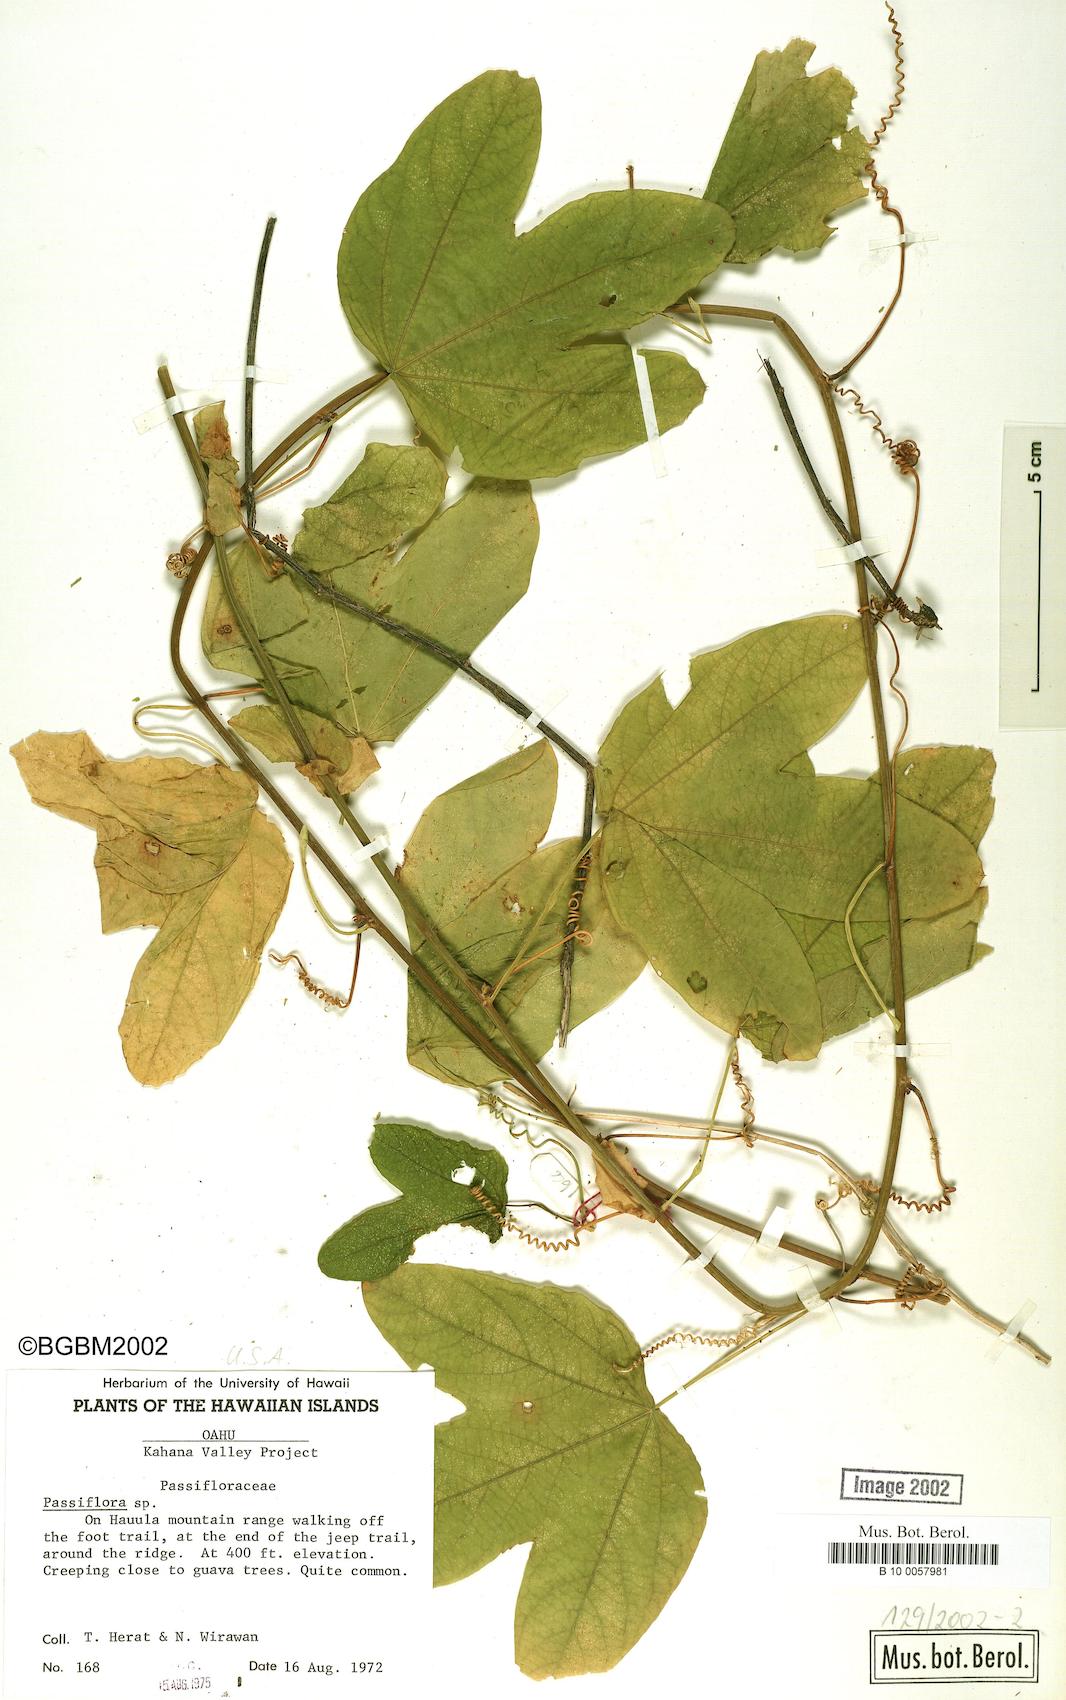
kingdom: Plantae
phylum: Tracheophyta
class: Magnoliopsida
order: Malpighiales
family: Passifloraceae
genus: Passiflora
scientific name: Passiflora
